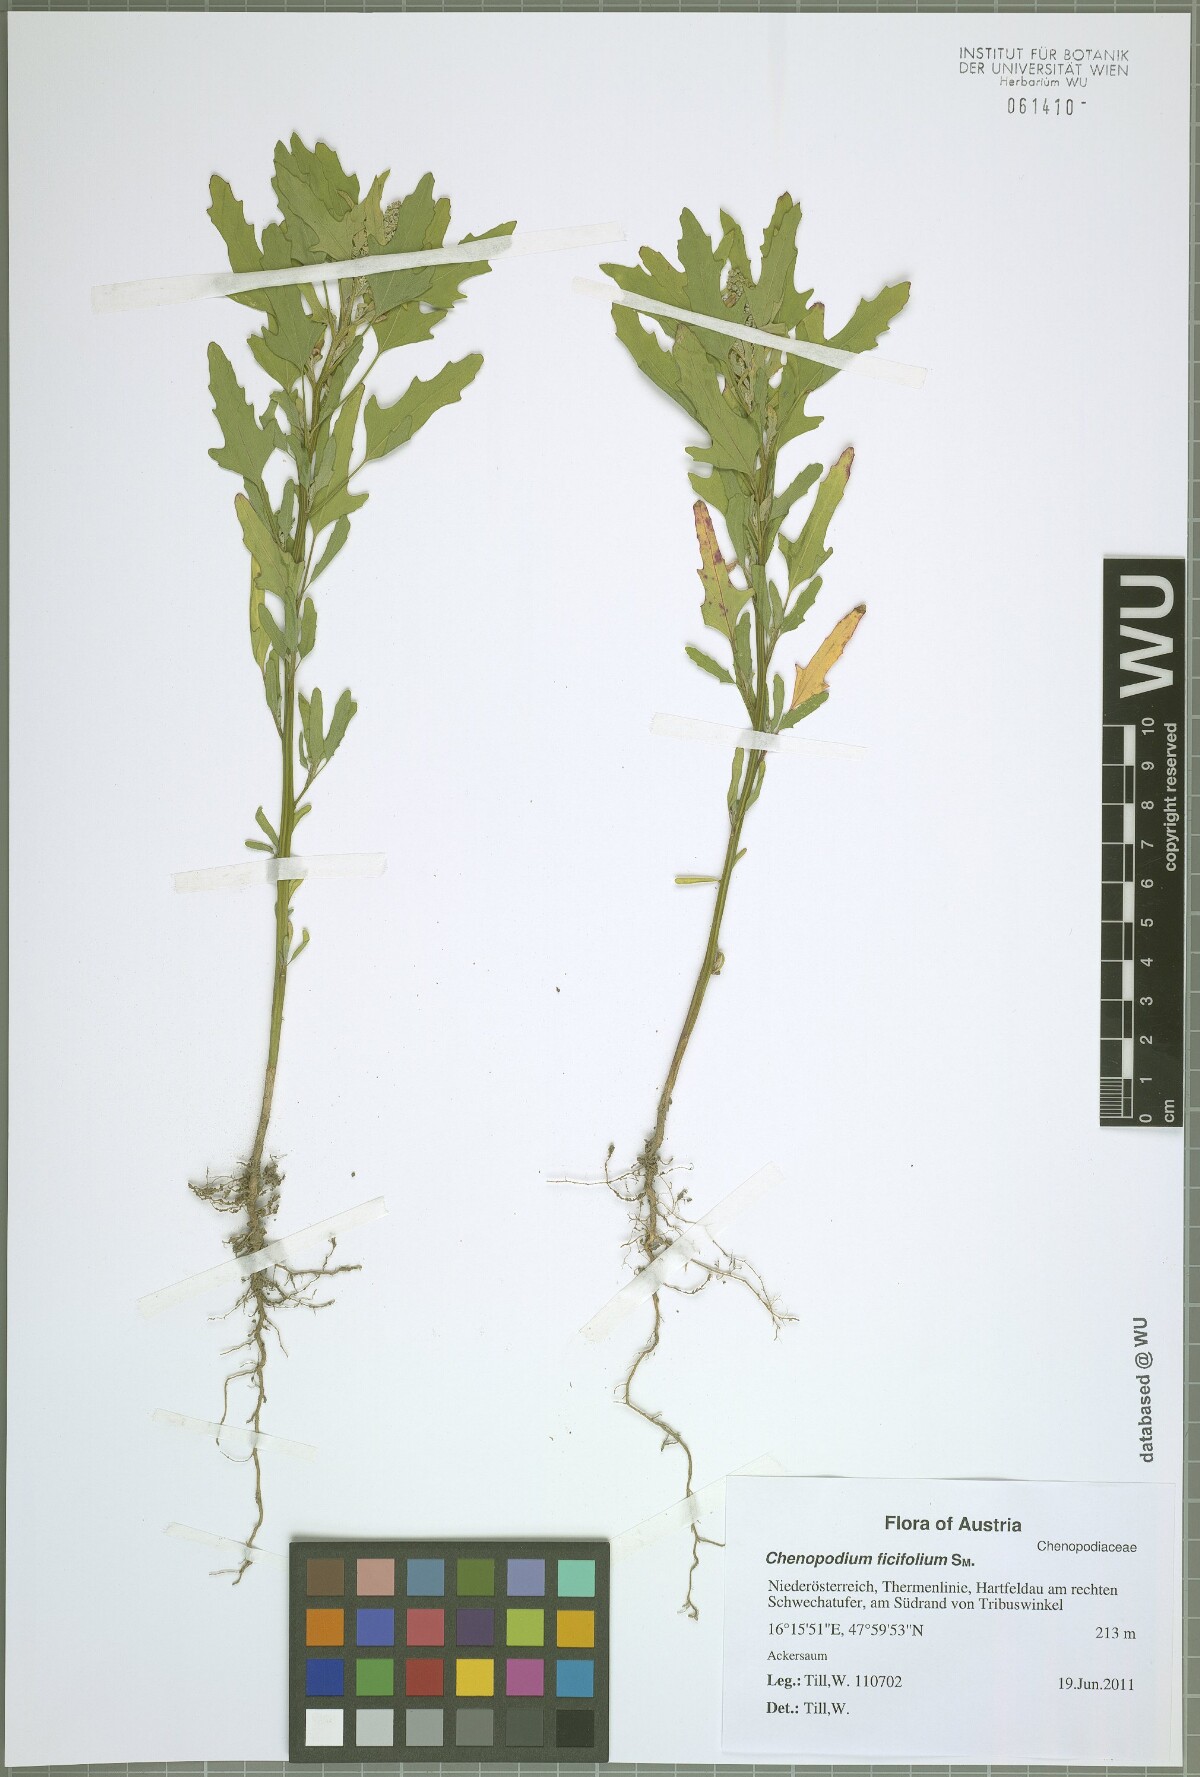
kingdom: Plantae
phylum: Tracheophyta
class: Magnoliopsida
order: Caryophyllales
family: Amaranthaceae
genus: Chenopodium
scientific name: Chenopodium ficifolium
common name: Fig-leaved goosefoot
